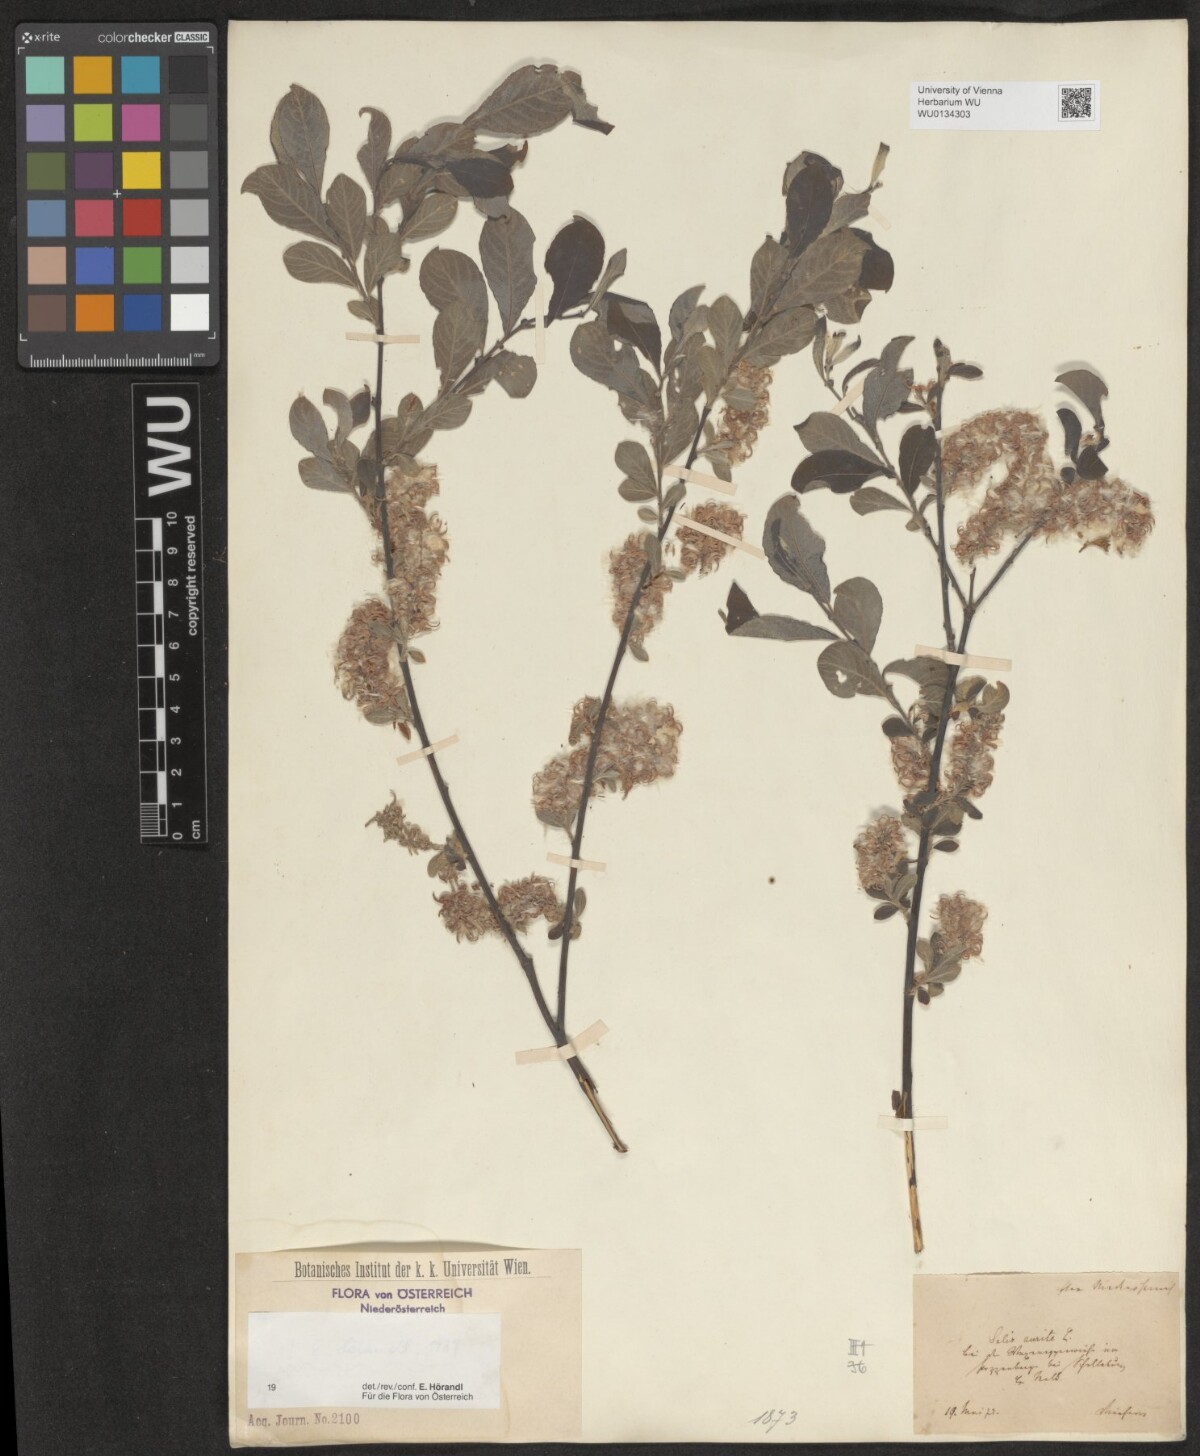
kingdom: Plantae
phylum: Tracheophyta
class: Magnoliopsida
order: Malpighiales
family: Salicaceae
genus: Salix
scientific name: Salix aurita
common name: Eared willow
